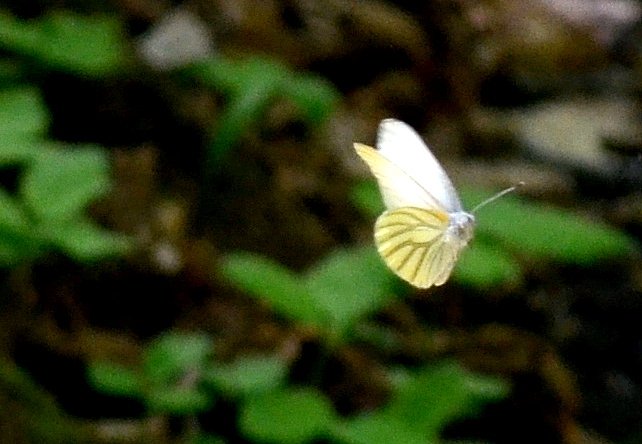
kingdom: Animalia
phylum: Arthropoda
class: Insecta
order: Lepidoptera
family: Pieridae
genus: Pieris
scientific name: Pieris oleracea
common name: Mustard White
